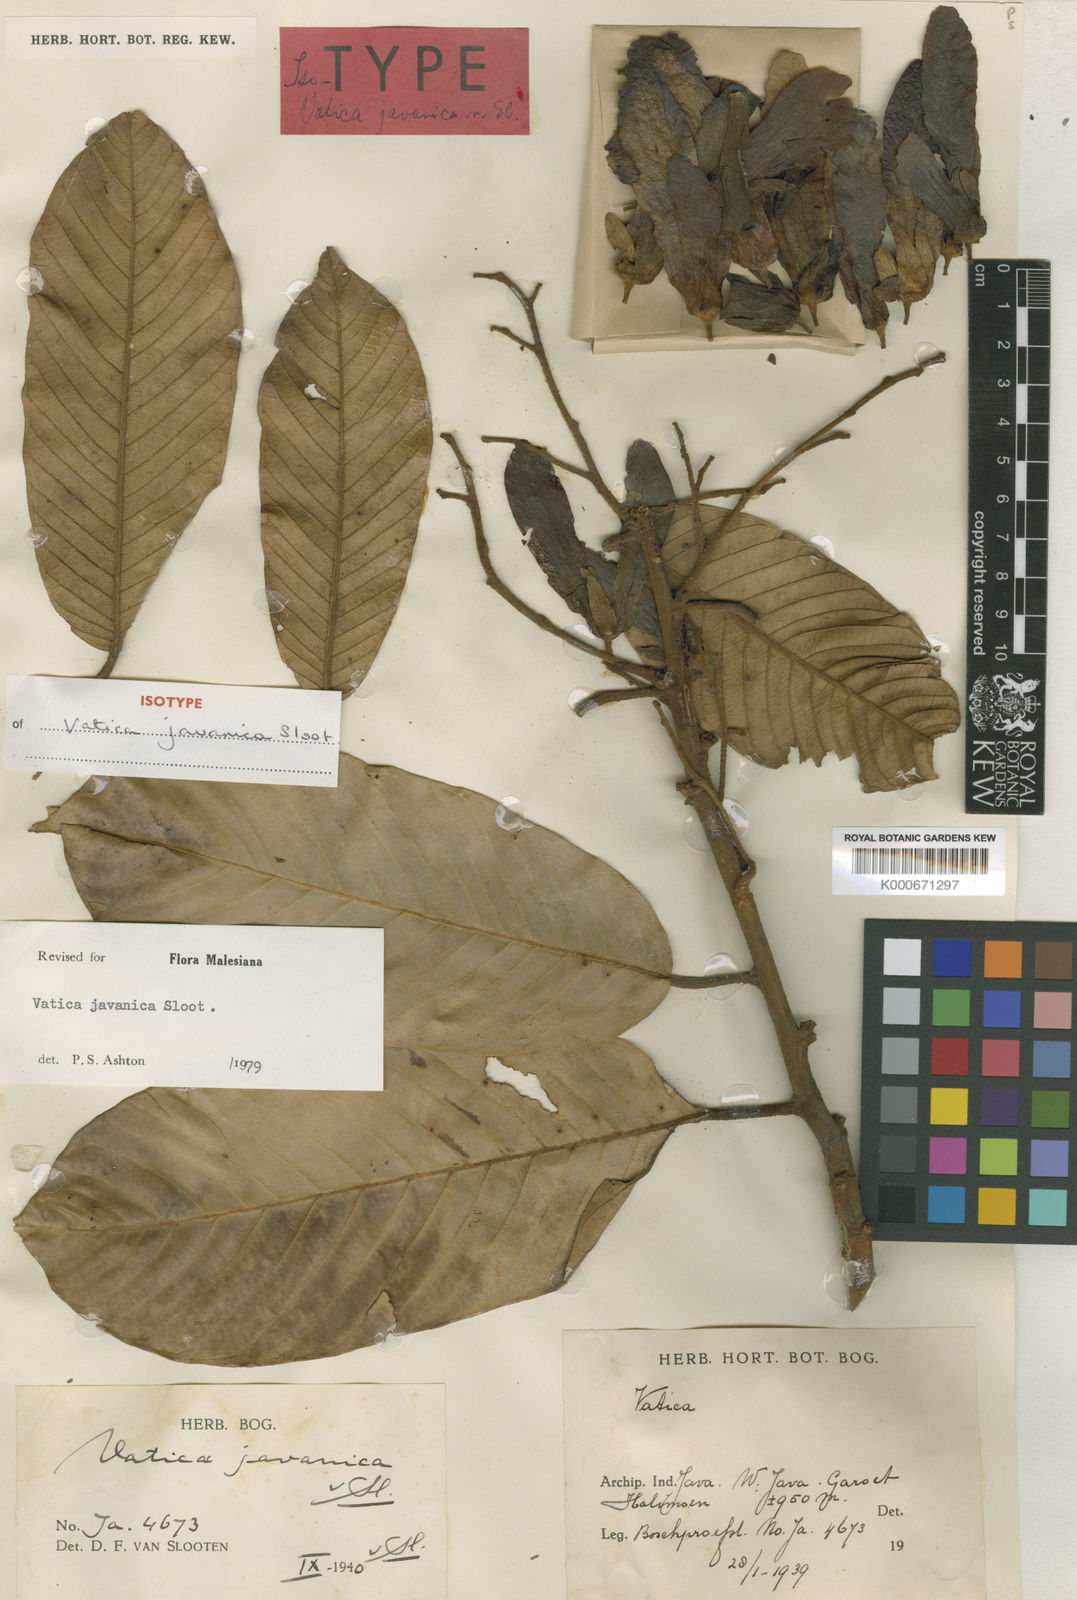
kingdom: Plantae
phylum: Tracheophyta
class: Magnoliopsida
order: Malvales
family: Dipterocarpaceae
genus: Vatica
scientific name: Vatica javanica
